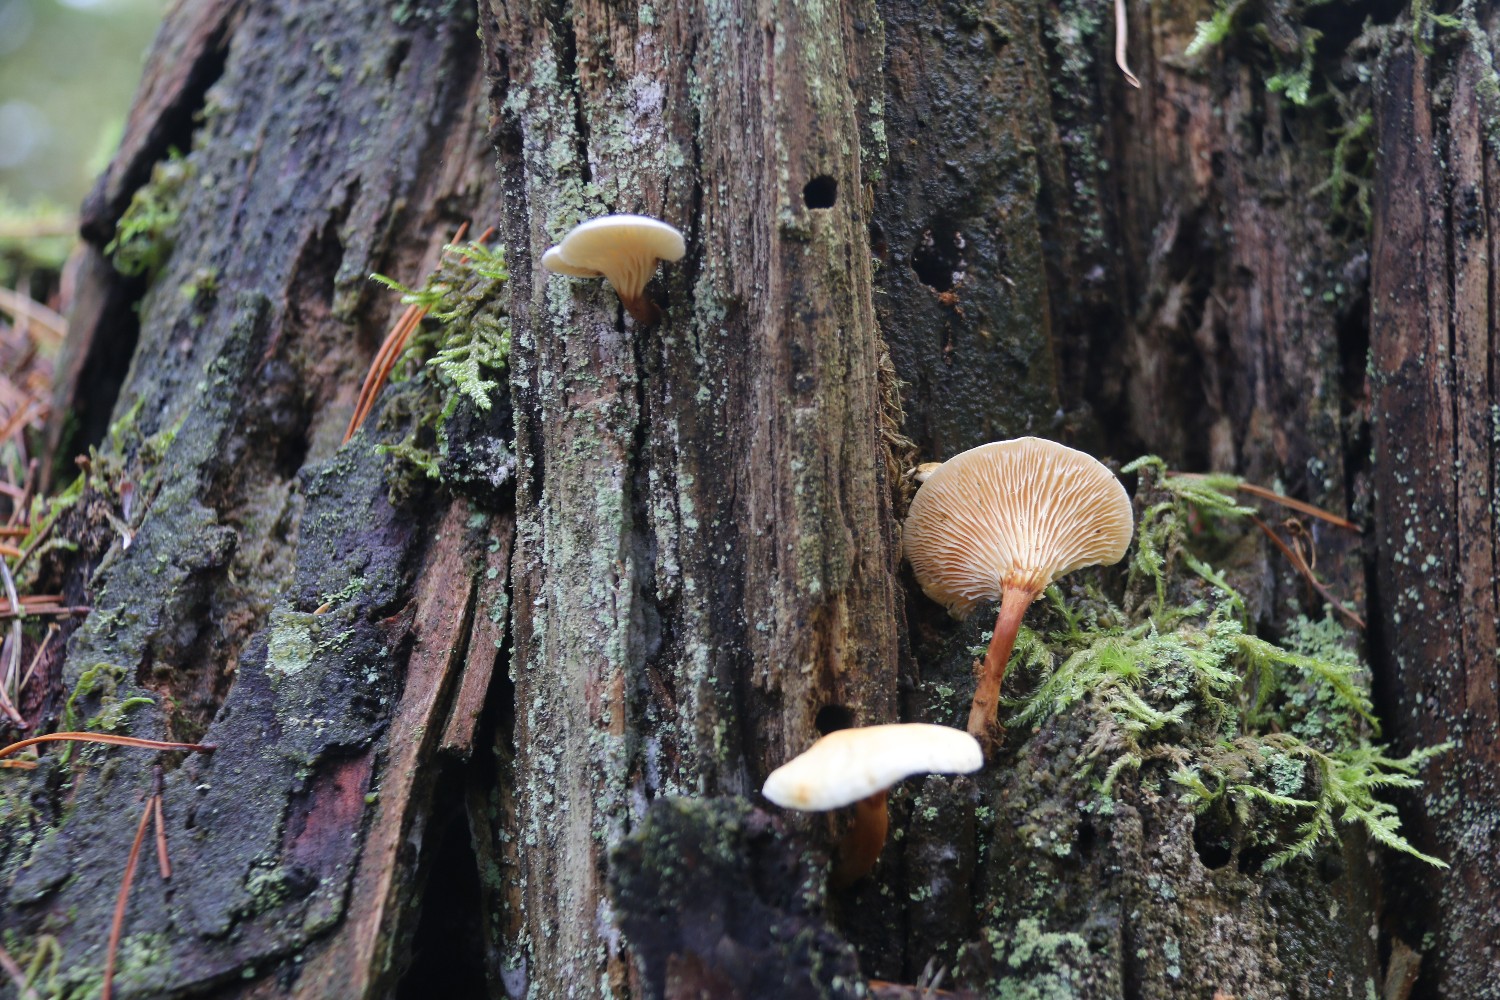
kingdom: Fungi
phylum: Basidiomycota
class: Agaricomycetes
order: Boletales
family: Hygrophoropsidaceae
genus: Hygrophoropsis
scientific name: Hygrophoropsis aurantiaca
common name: almindelig orangekantarel
